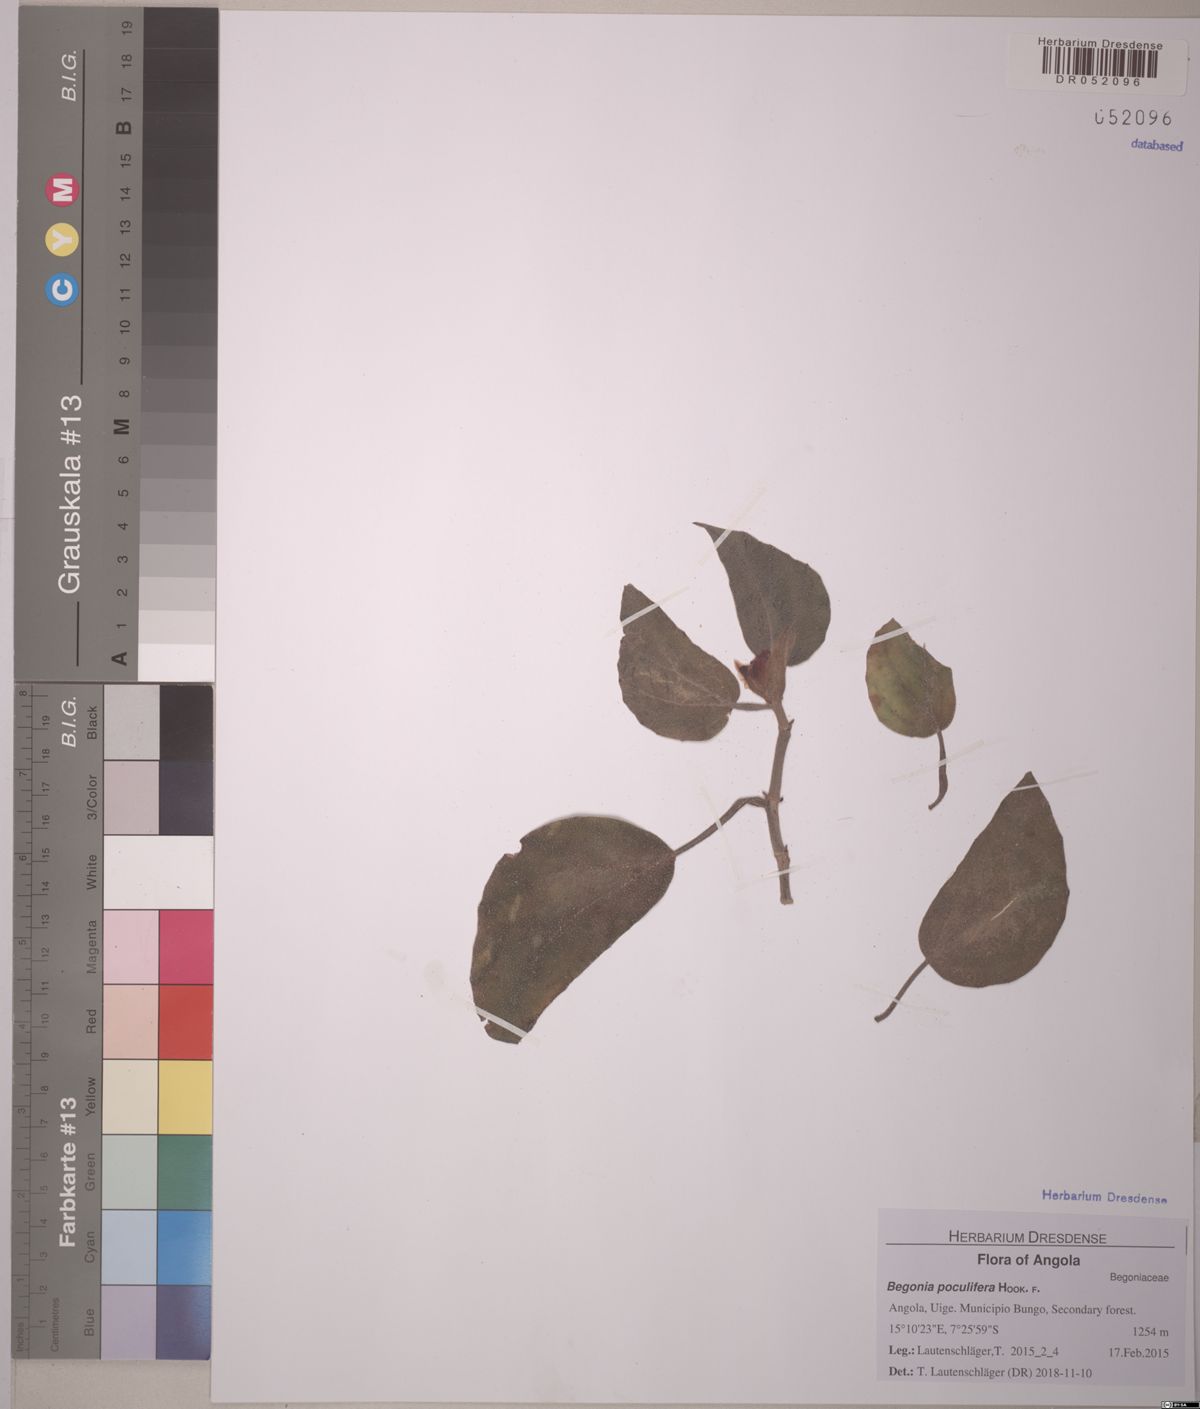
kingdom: Plantae
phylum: Tracheophyta
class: Magnoliopsida
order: Cucurbitales
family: Begoniaceae
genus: Begonia
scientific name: Begonia poculifera
